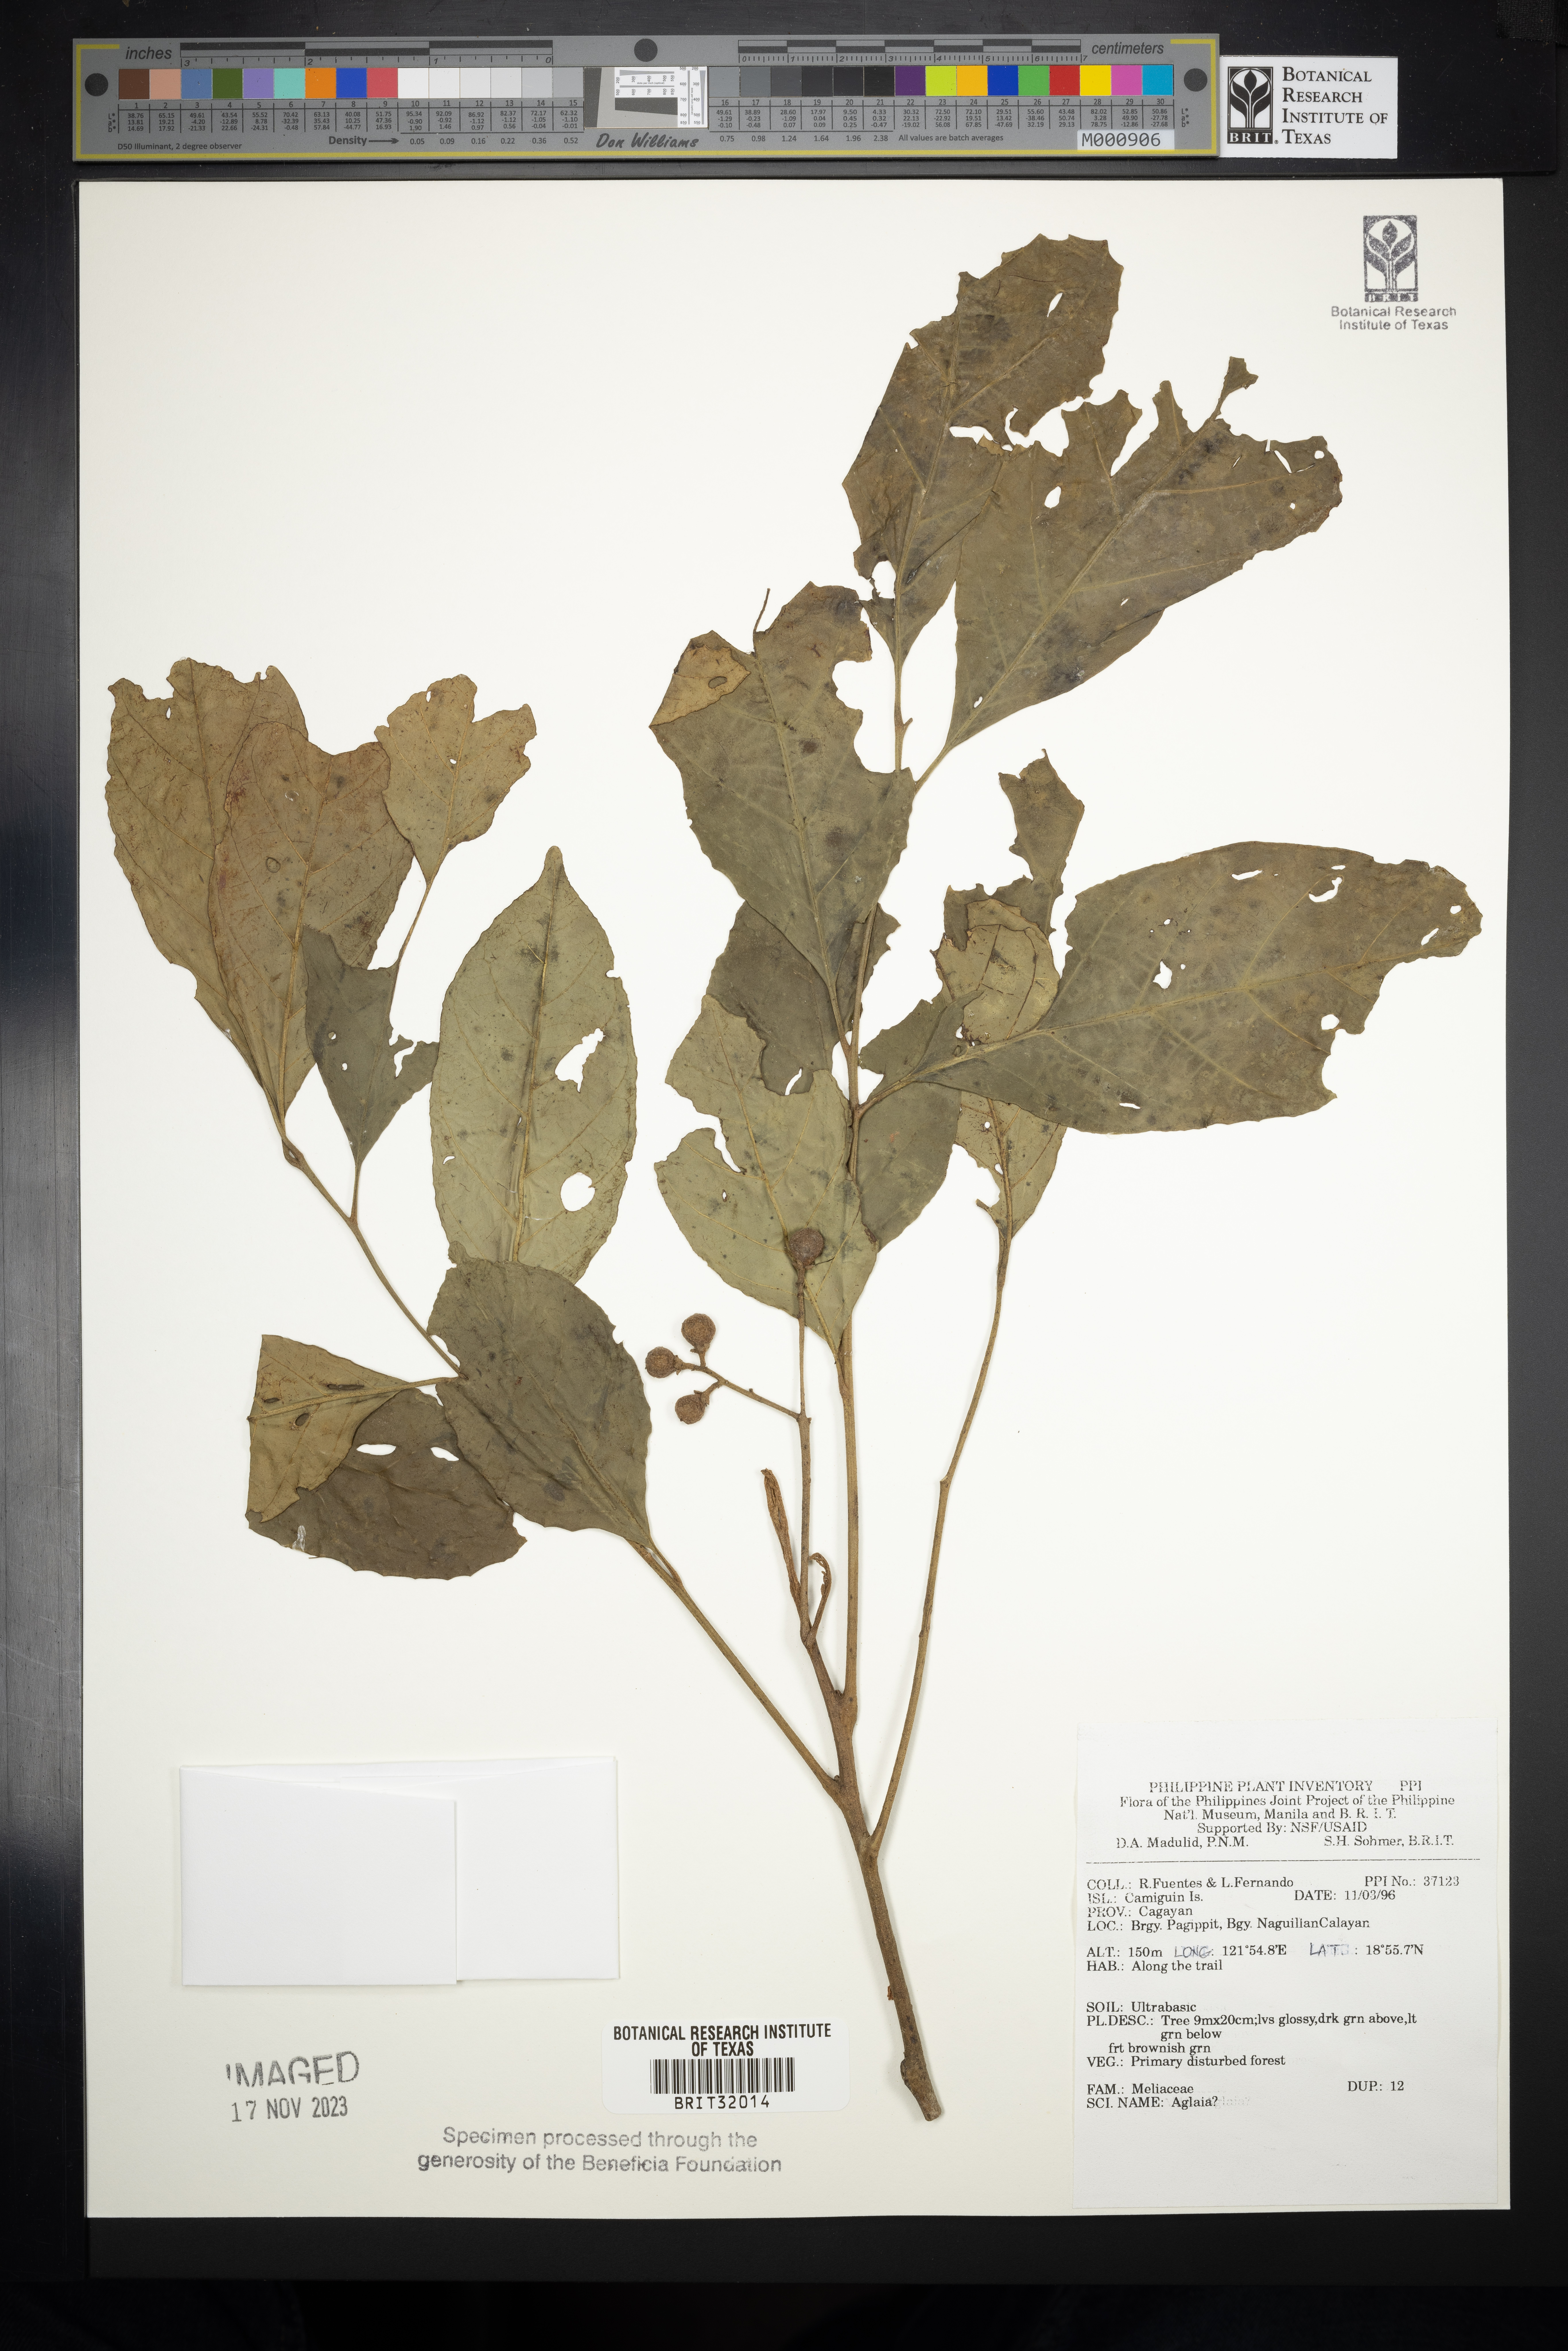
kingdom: Plantae
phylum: Tracheophyta
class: Magnoliopsida
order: Sapindales
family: Meliaceae
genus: Aglaia
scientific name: Aglaia
